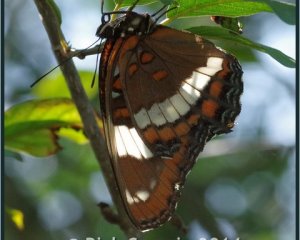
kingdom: Animalia
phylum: Arthropoda
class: Insecta
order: Lepidoptera
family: Nymphalidae
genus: Limenitis
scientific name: Limenitis arthemis
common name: Red-spotted Admiral
